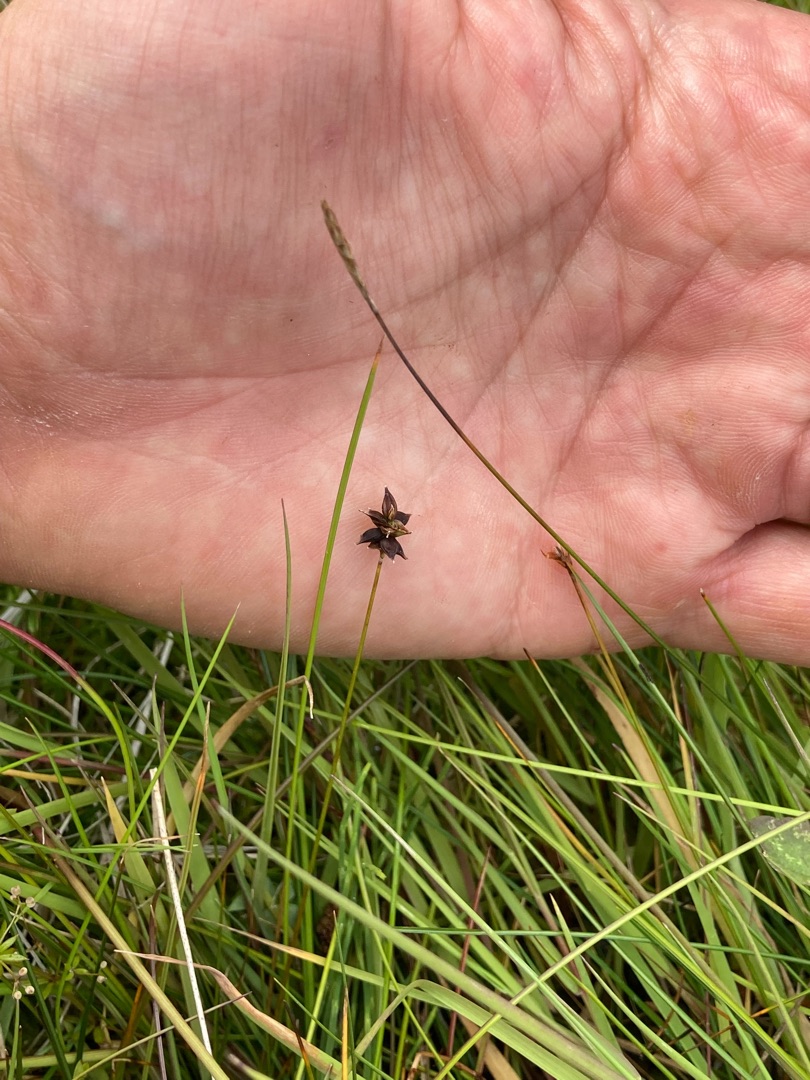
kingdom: Plantae
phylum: Tracheophyta
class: Liliopsida
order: Poales
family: Cyperaceae
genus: Carex
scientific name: Carex dioica
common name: Tvebo star
